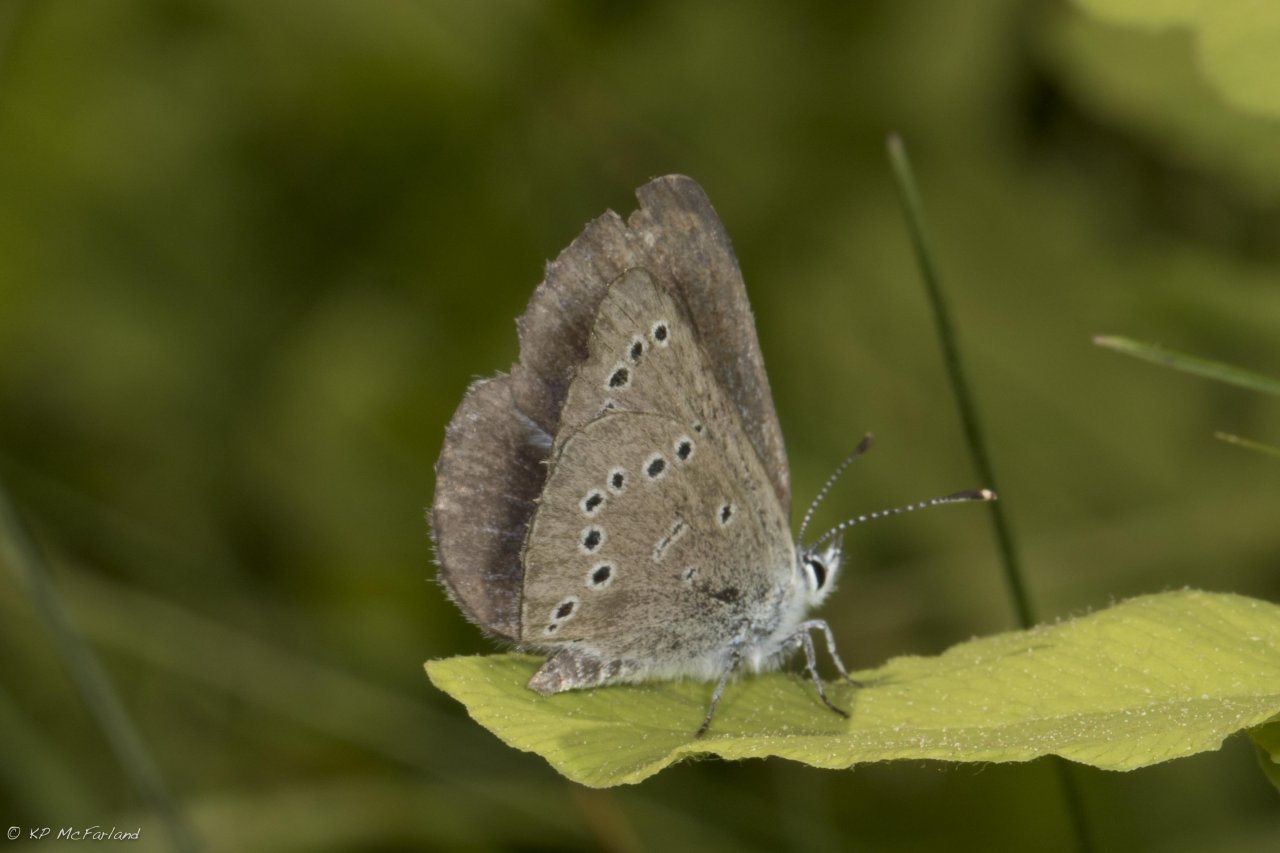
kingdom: Animalia
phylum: Arthropoda
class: Insecta
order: Lepidoptera
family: Lycaenidae
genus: Glaucopsyche
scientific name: Glaucopsyche lygdamus
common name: Silvery Blue
